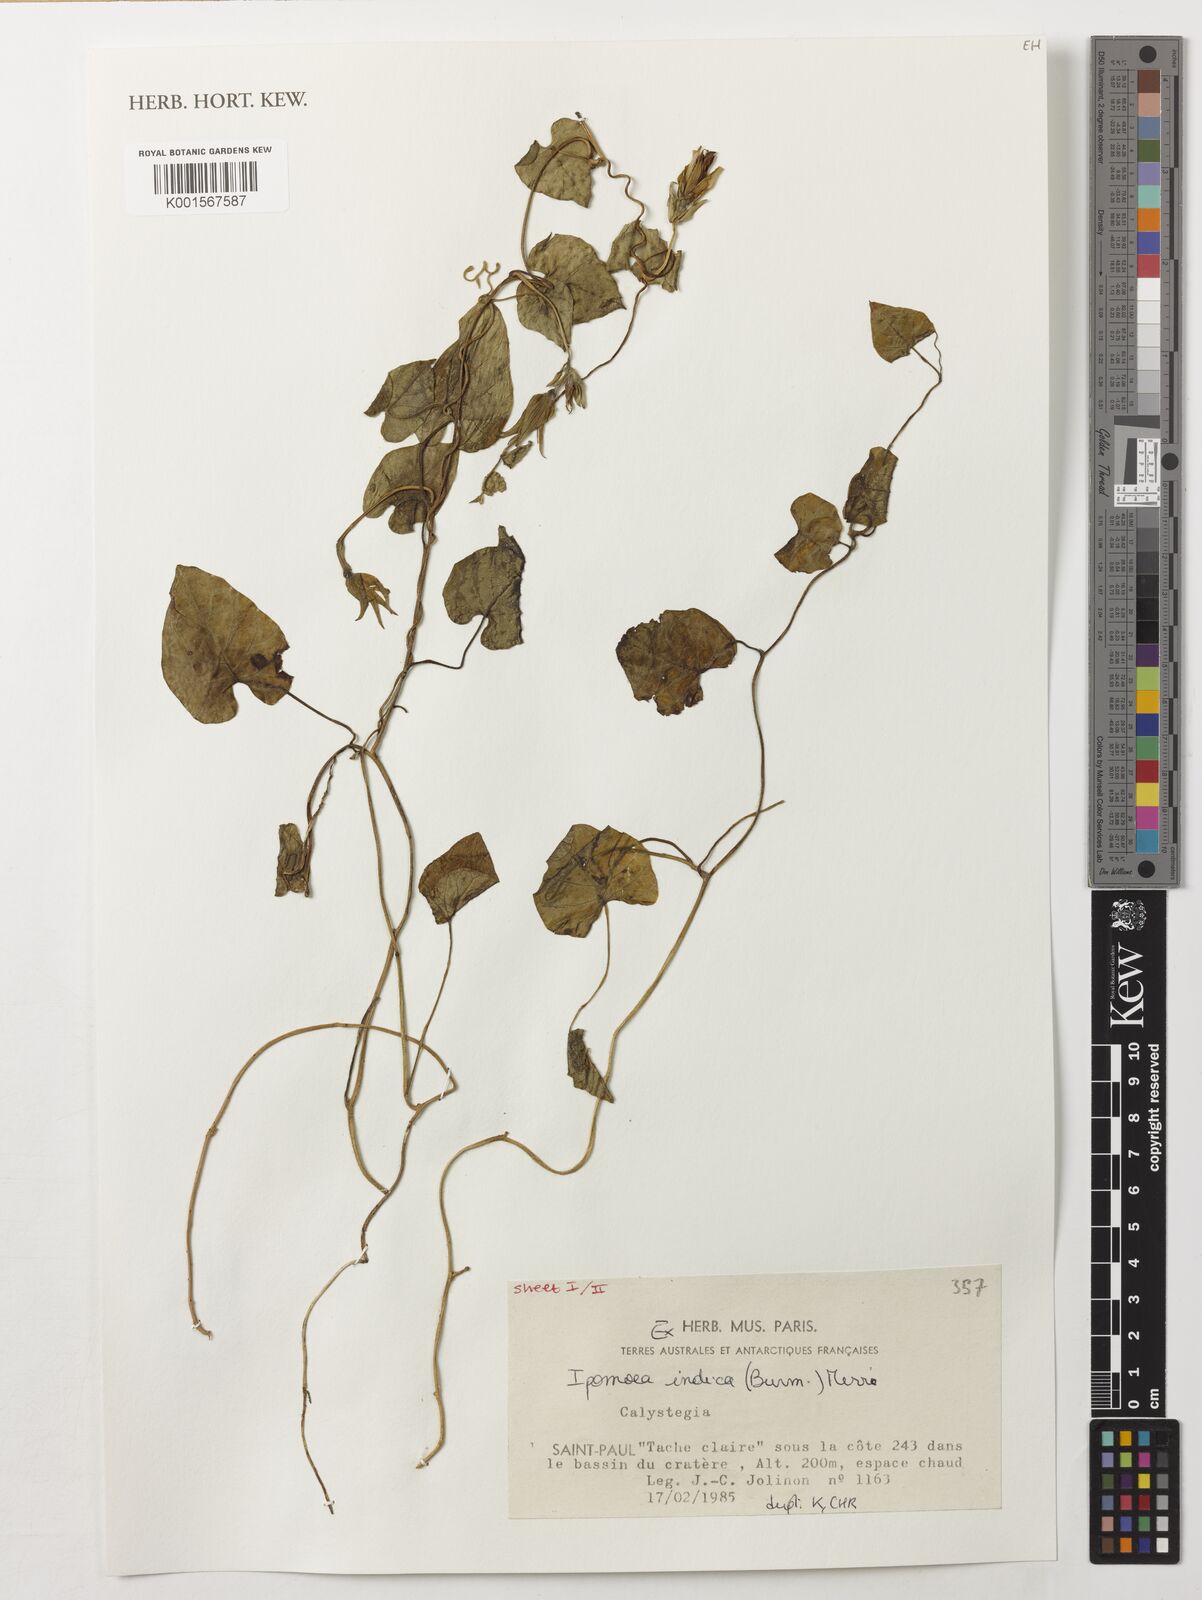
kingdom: Plantae
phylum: Tracheophyta
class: Magnoliopsida
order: Solanales
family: Convolvulaceae
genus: Ipomoea
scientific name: Ipomoea indica
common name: Blue dawnflower
